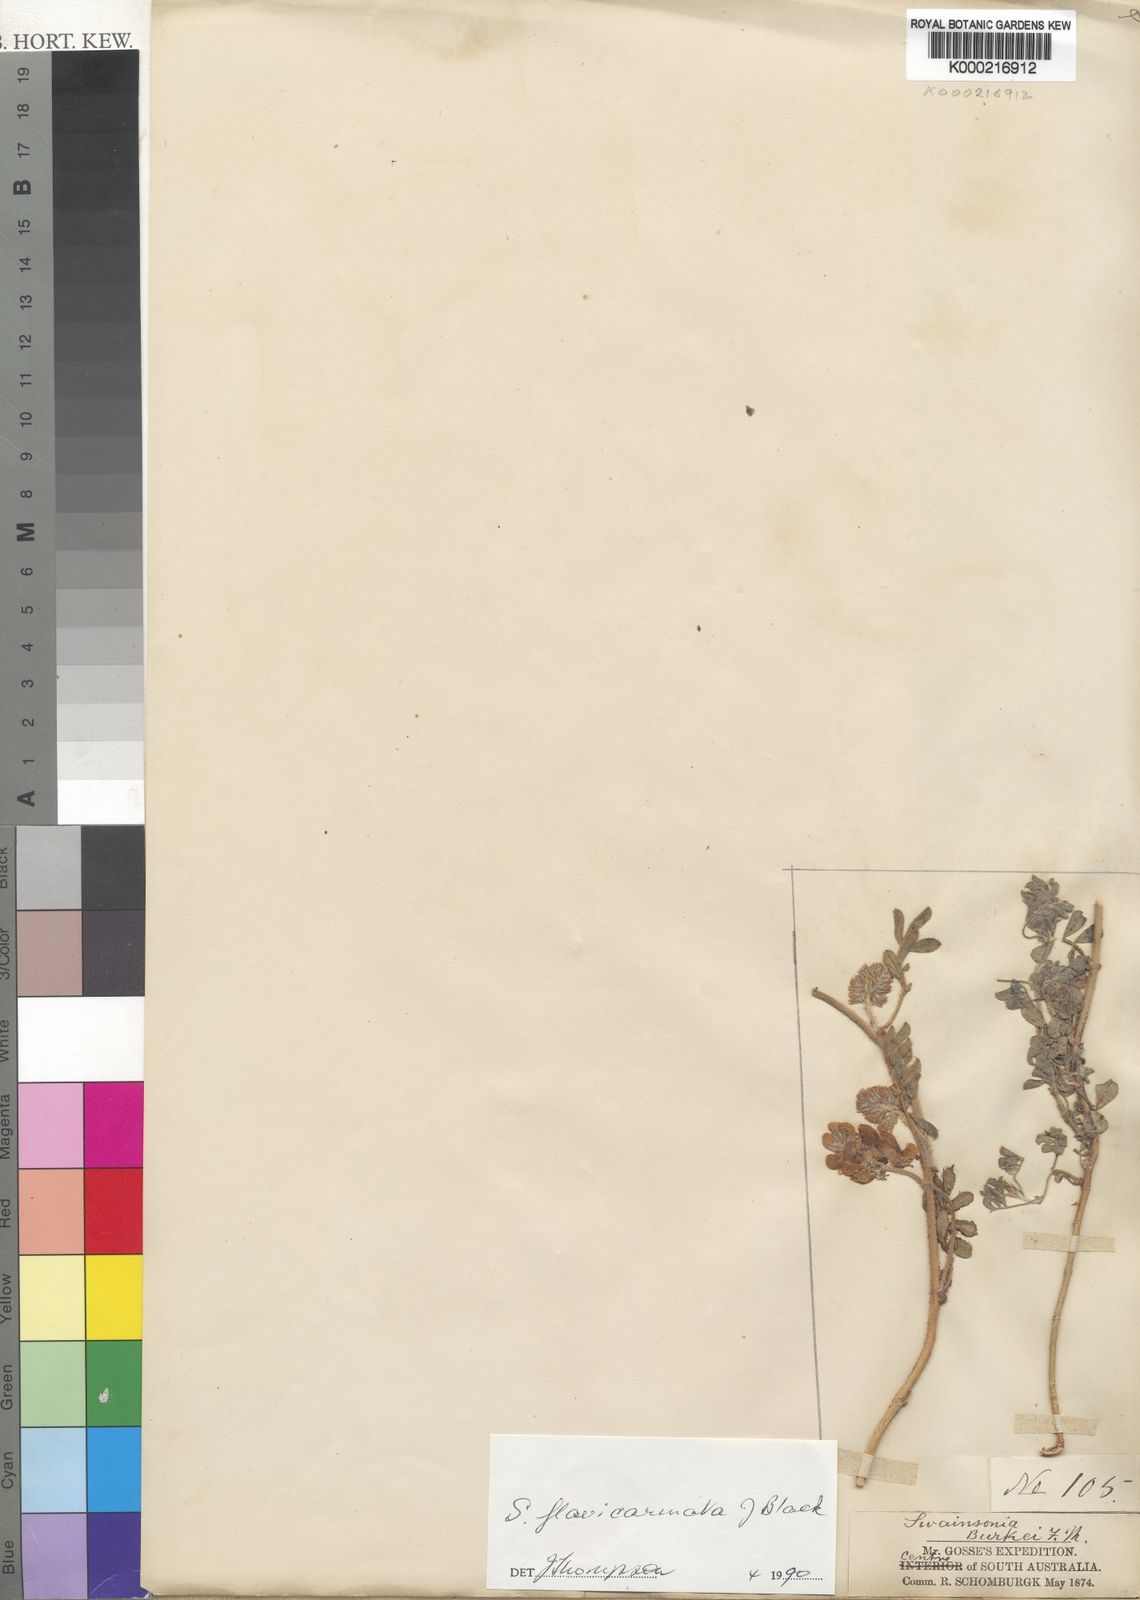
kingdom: Plantae
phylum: Tracheophyta
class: Magnoliopsida
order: Fabales
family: Fabaceae
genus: Swainsona
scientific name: Swainsona flavicarinata
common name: Yellow-keel swainsona
